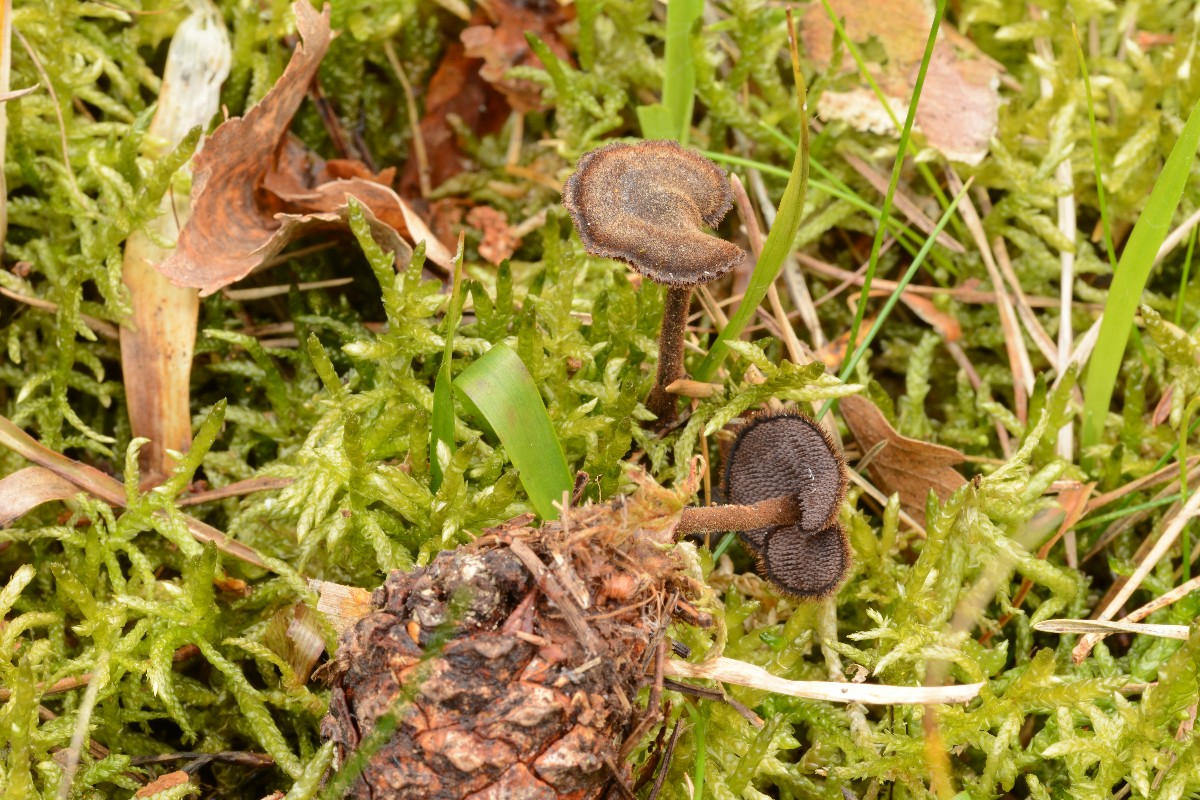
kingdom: Fungi
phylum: Basidiomycota
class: Agaricomycetes
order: Russulales
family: Auriscalpiaceae
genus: Auriscalpium
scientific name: Auriscalpium vulgare
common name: koglepigsvamp
